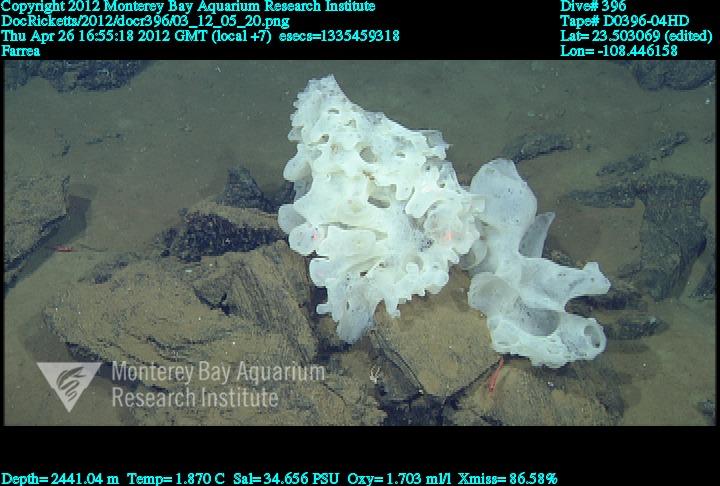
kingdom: Animalia
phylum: Porifera
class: Hexactinellida
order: Sceptrulophora
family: Farreidae
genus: Farrea
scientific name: Farrea
